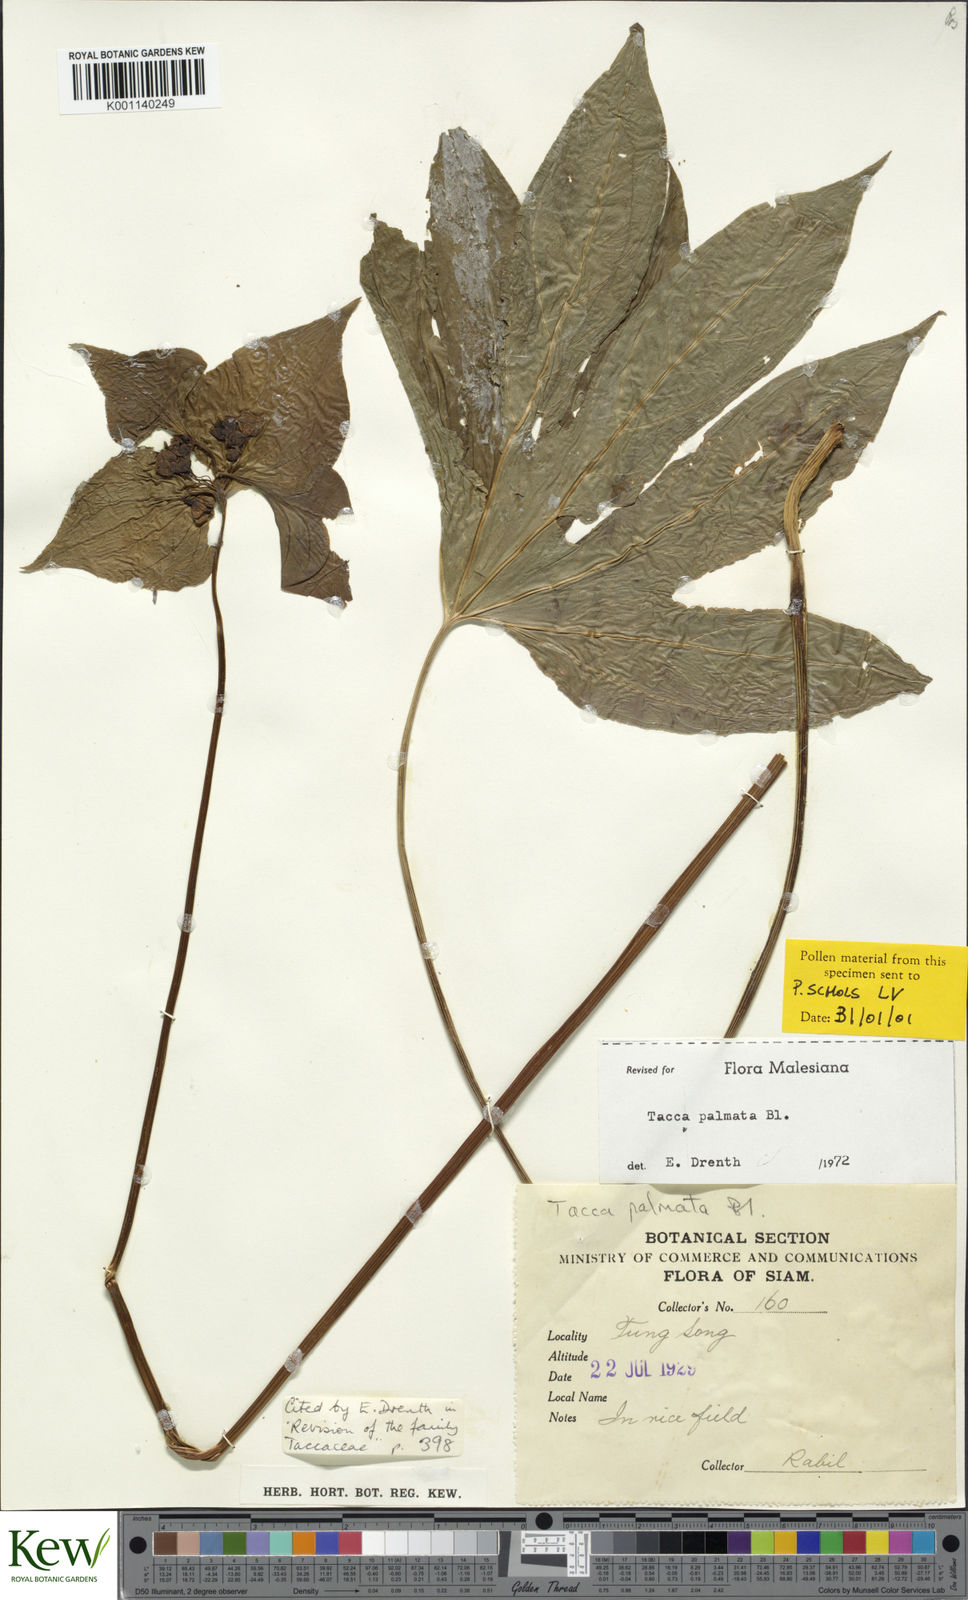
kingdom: Plantae
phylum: Tracheophyta
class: Liliopsida
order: Dioscoreales
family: Dioscoreaceae
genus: Tacca
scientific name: Tacca palmata
